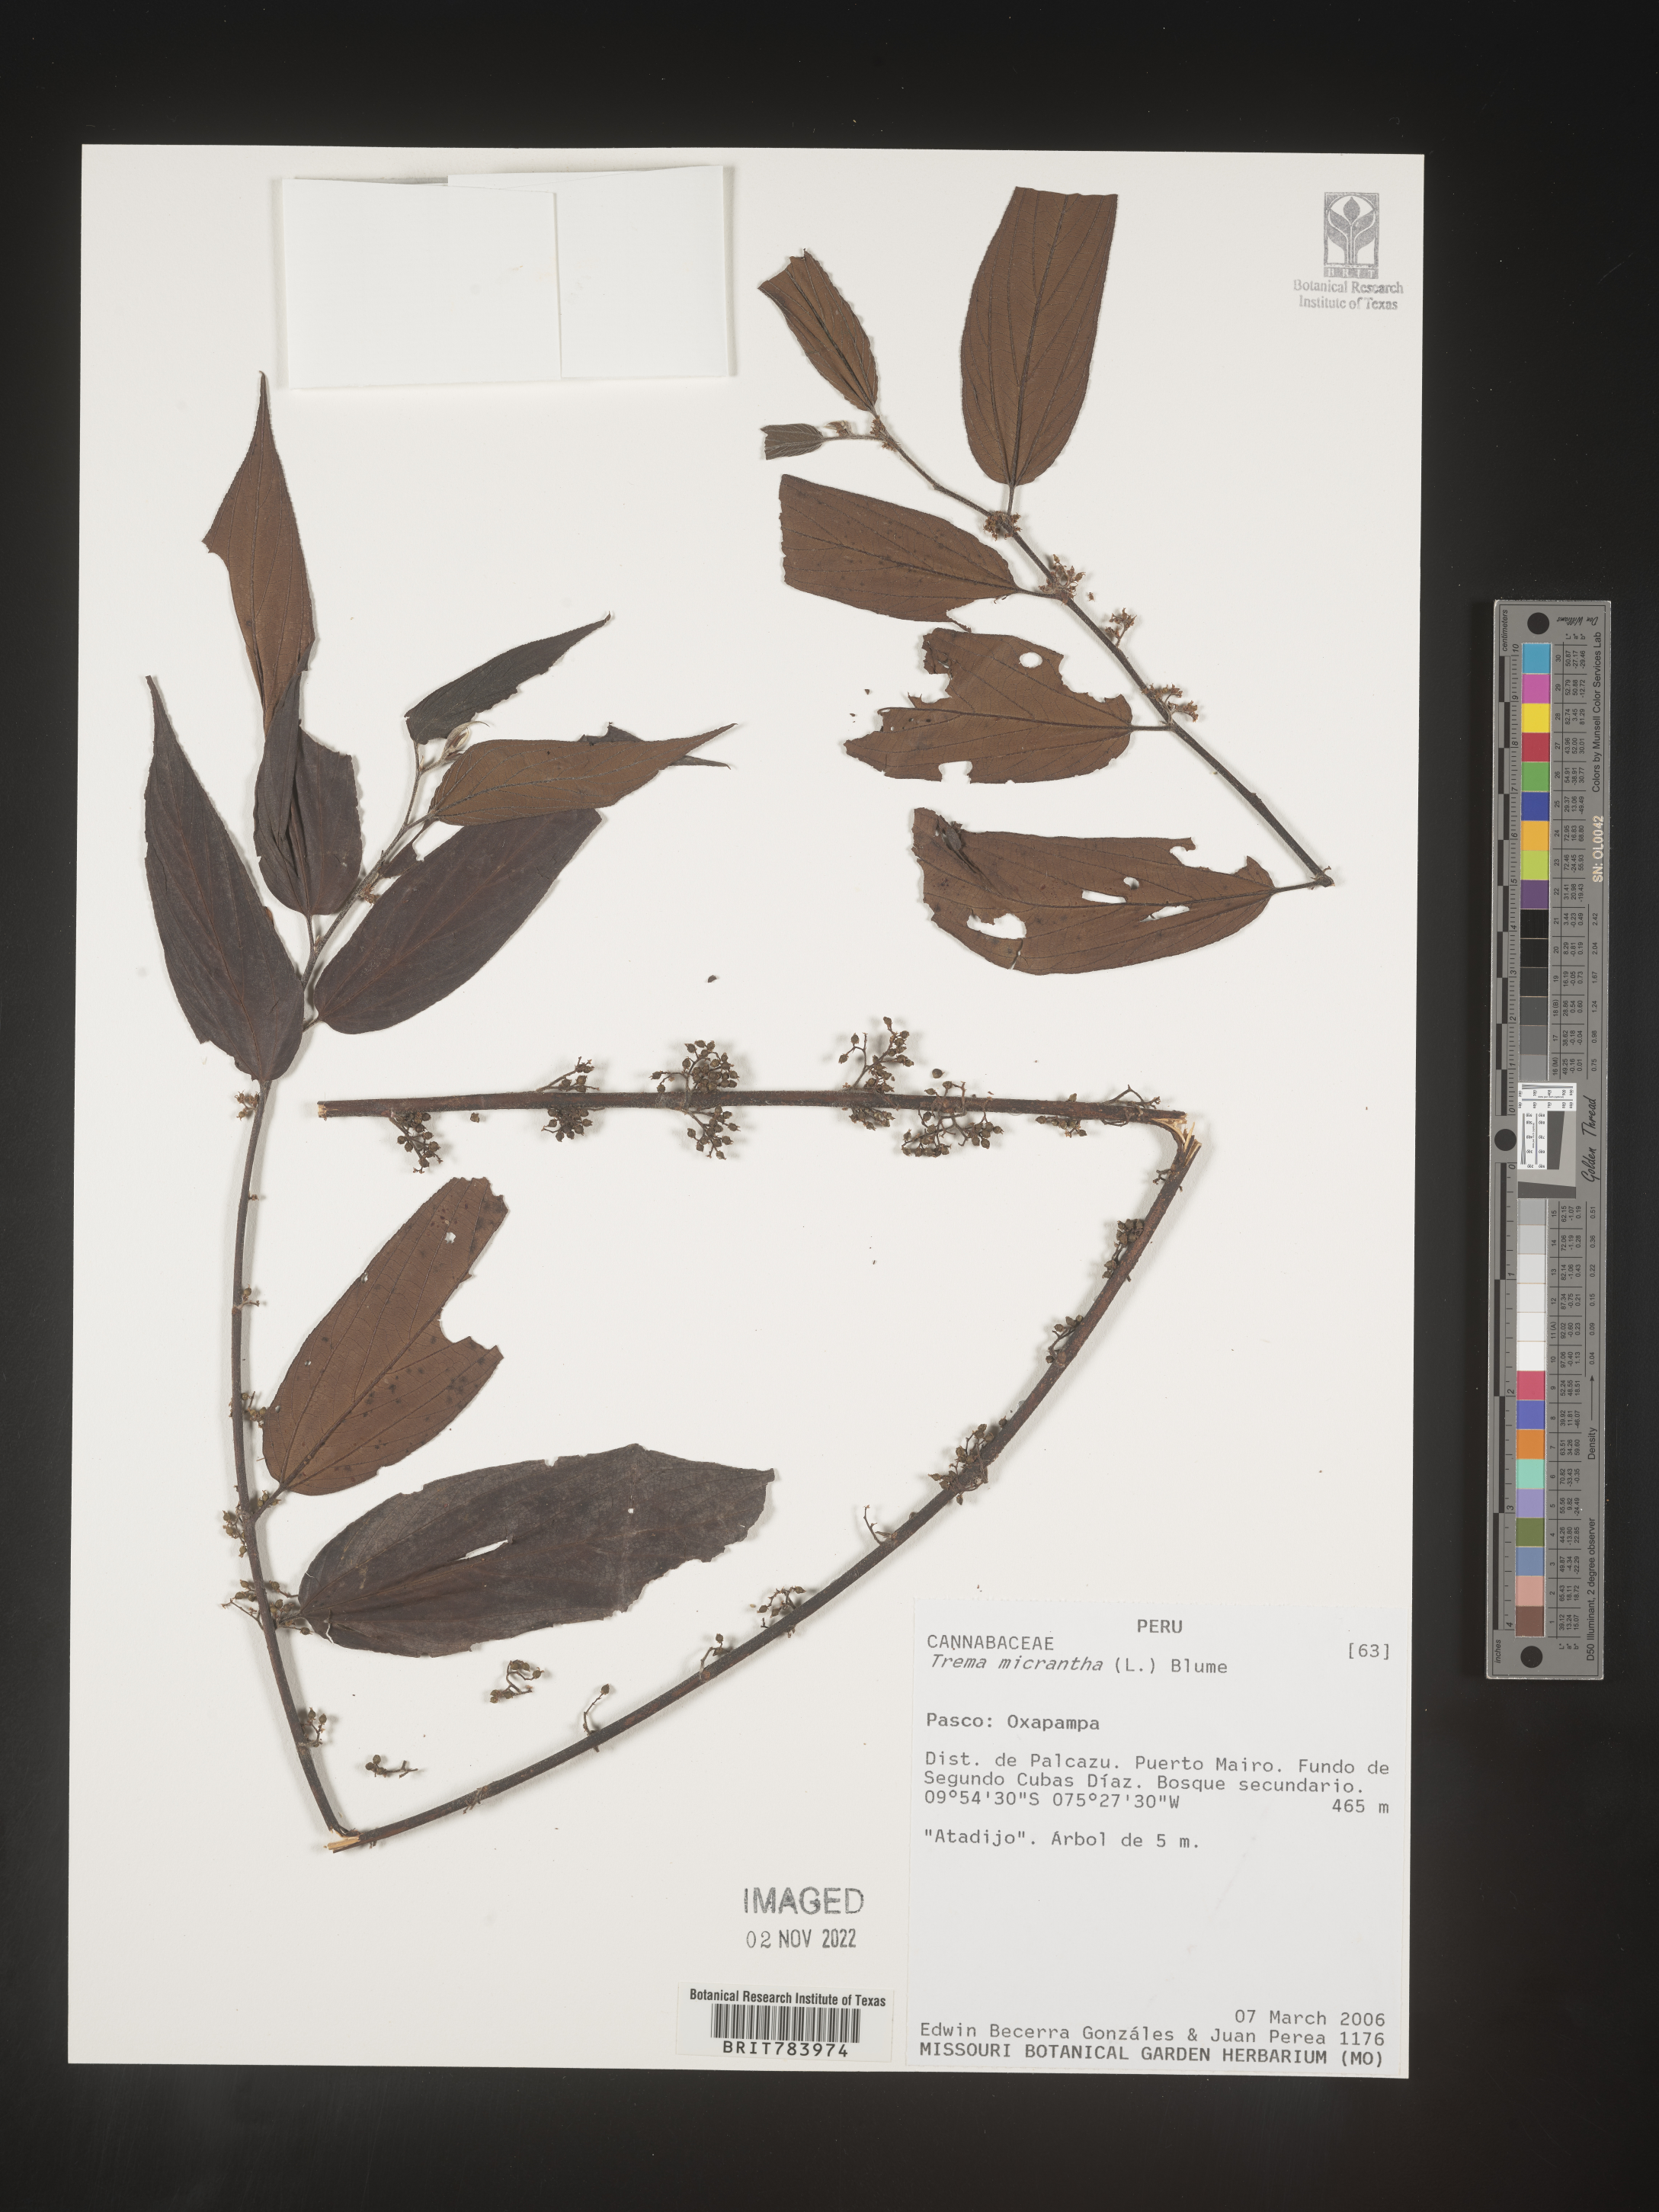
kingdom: Plantae
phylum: Tracheophyta
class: Magnoliopsida
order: Rosales
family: Cannabaceae
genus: Trema
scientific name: Trema
